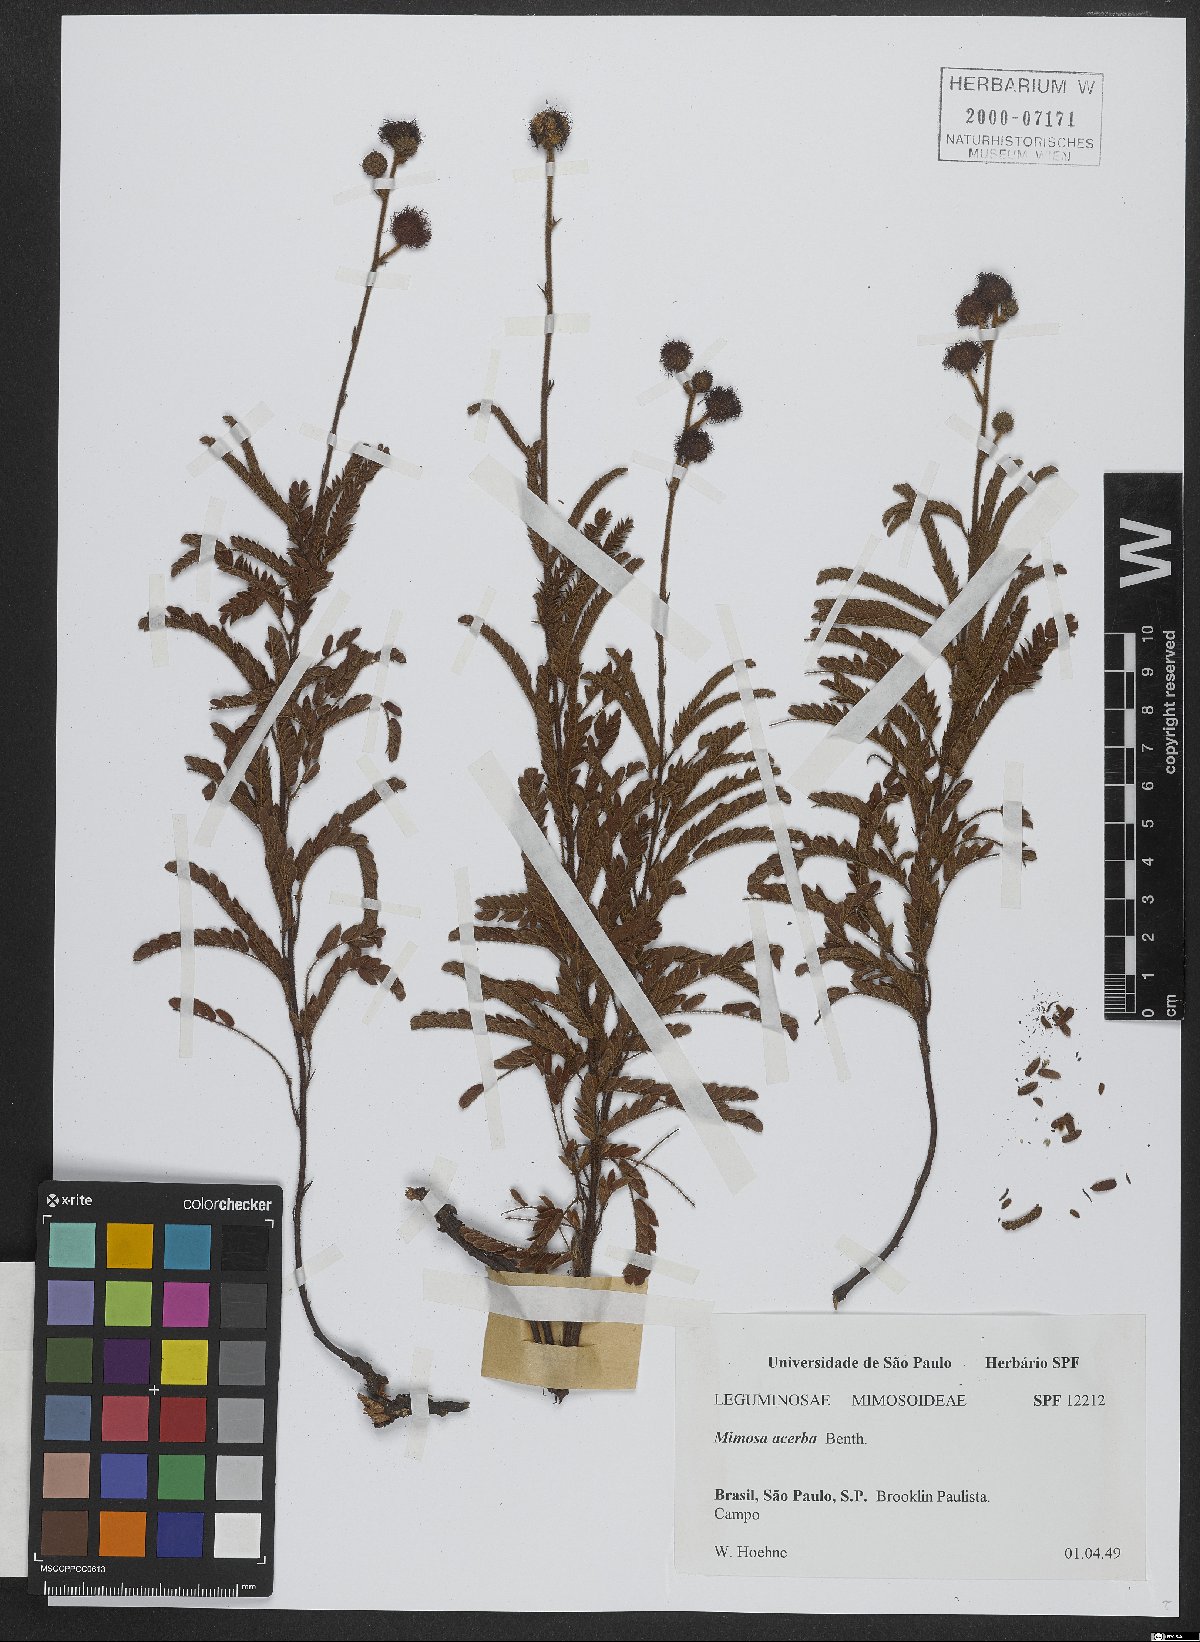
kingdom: Plantae
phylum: Tracheophyta
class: Magnoliopsida
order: Fabales
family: Fabaceae
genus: Mimosa
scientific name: Mimosa dolens
